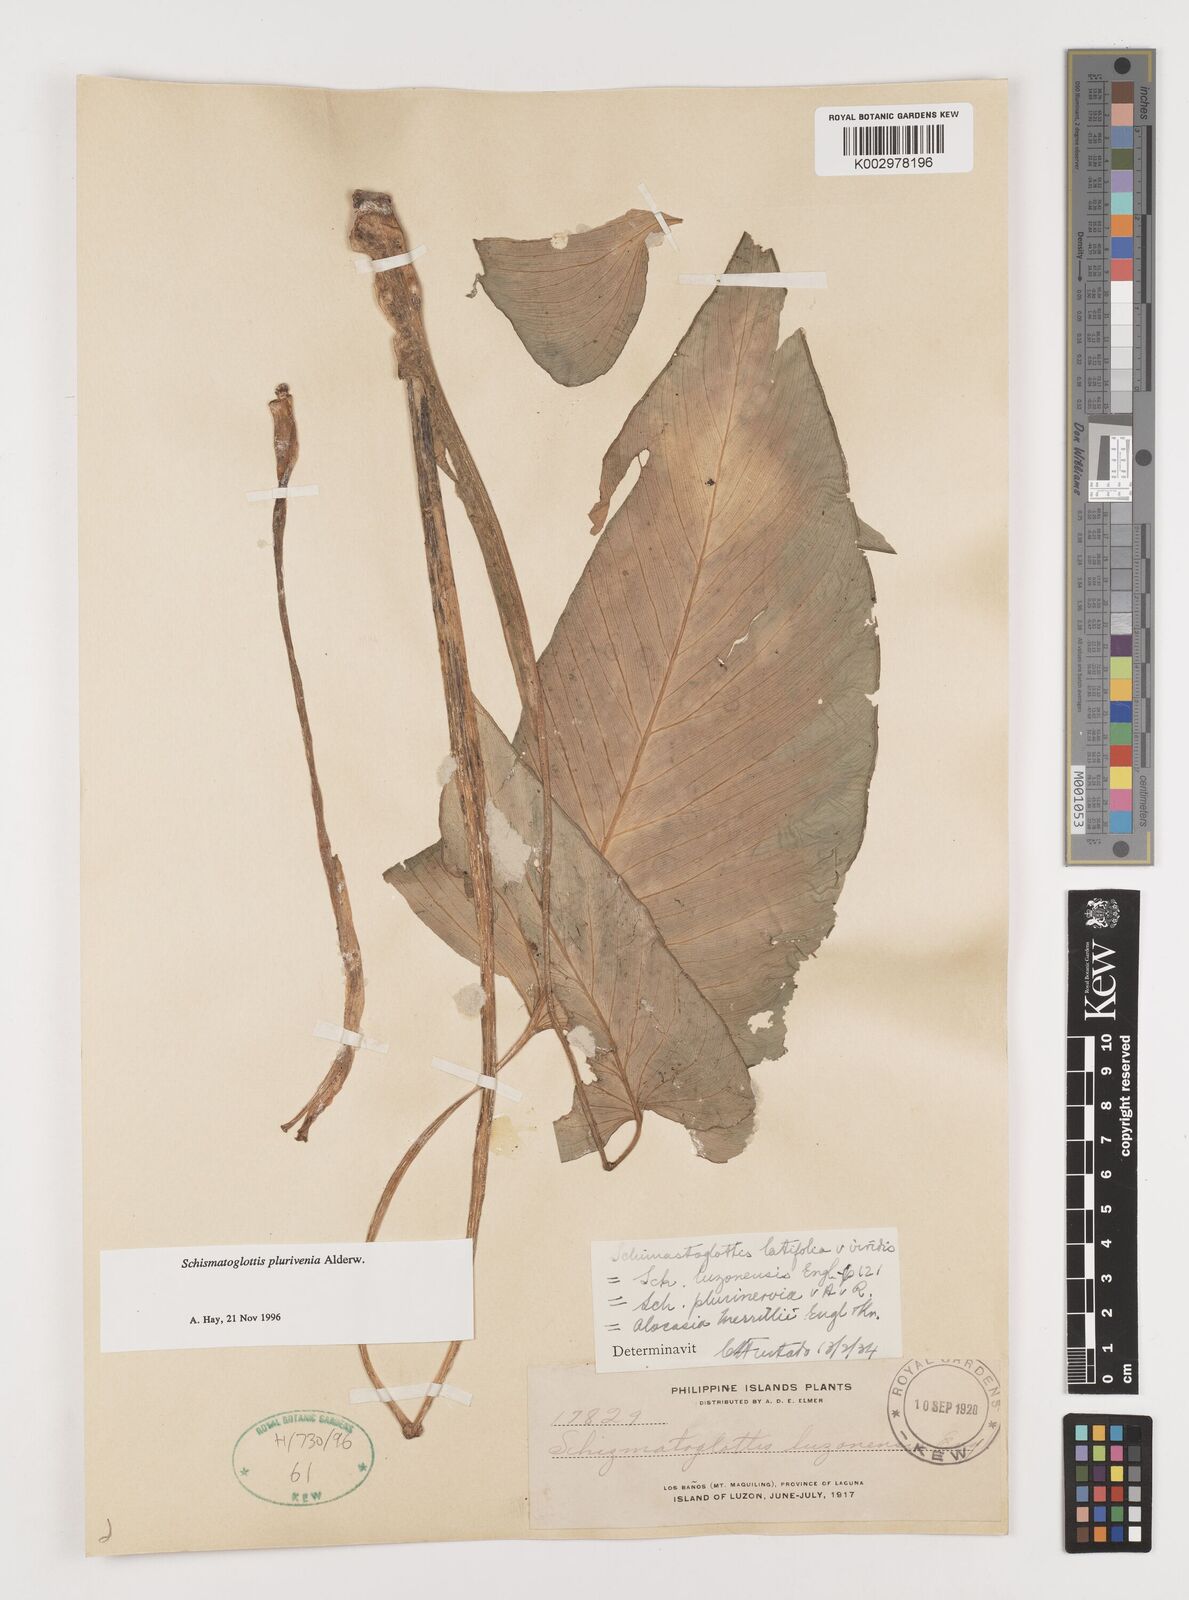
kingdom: Plantae
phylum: Tracheophyta
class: Liliopsida
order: Alismatales
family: Araceae
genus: Schismatoglottis
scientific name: Schismatoglottis plurivenia
